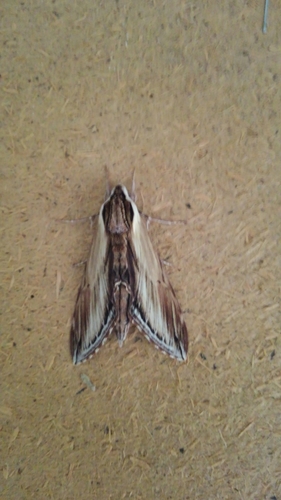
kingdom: Animalia
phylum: Arthropoda
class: Insecta
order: Lepidoptera
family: Sphingidae
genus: Sphinx
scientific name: Sphinx kalmiae
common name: Laurel sphinx
